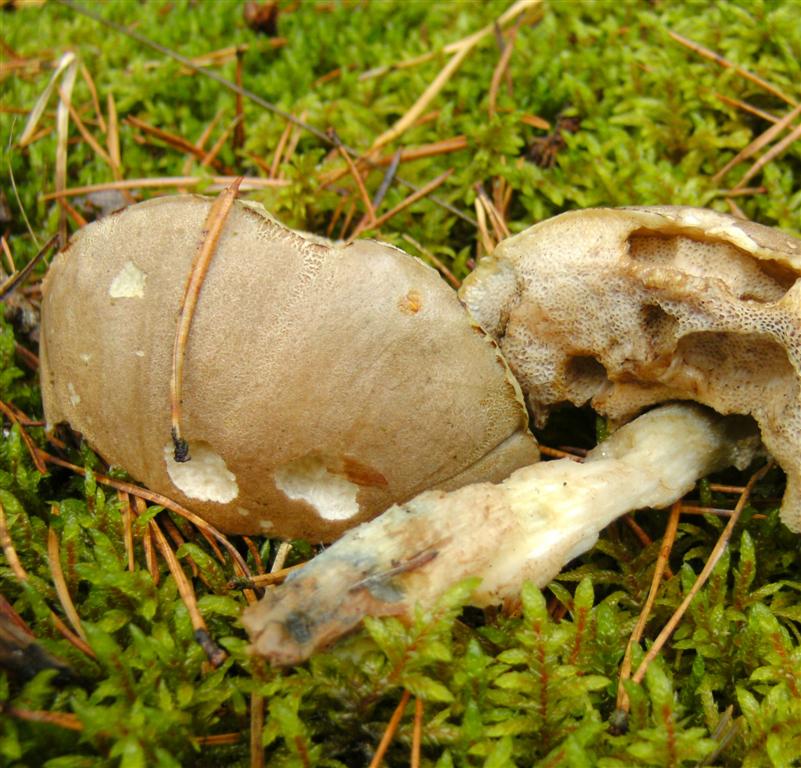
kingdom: Fungi
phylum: Basidiomycota
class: Agaricomycetes
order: Boletales
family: Boletaceae
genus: Leccinum
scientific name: Leccinum cyaneobasileucum
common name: almindelig skælrørhat
